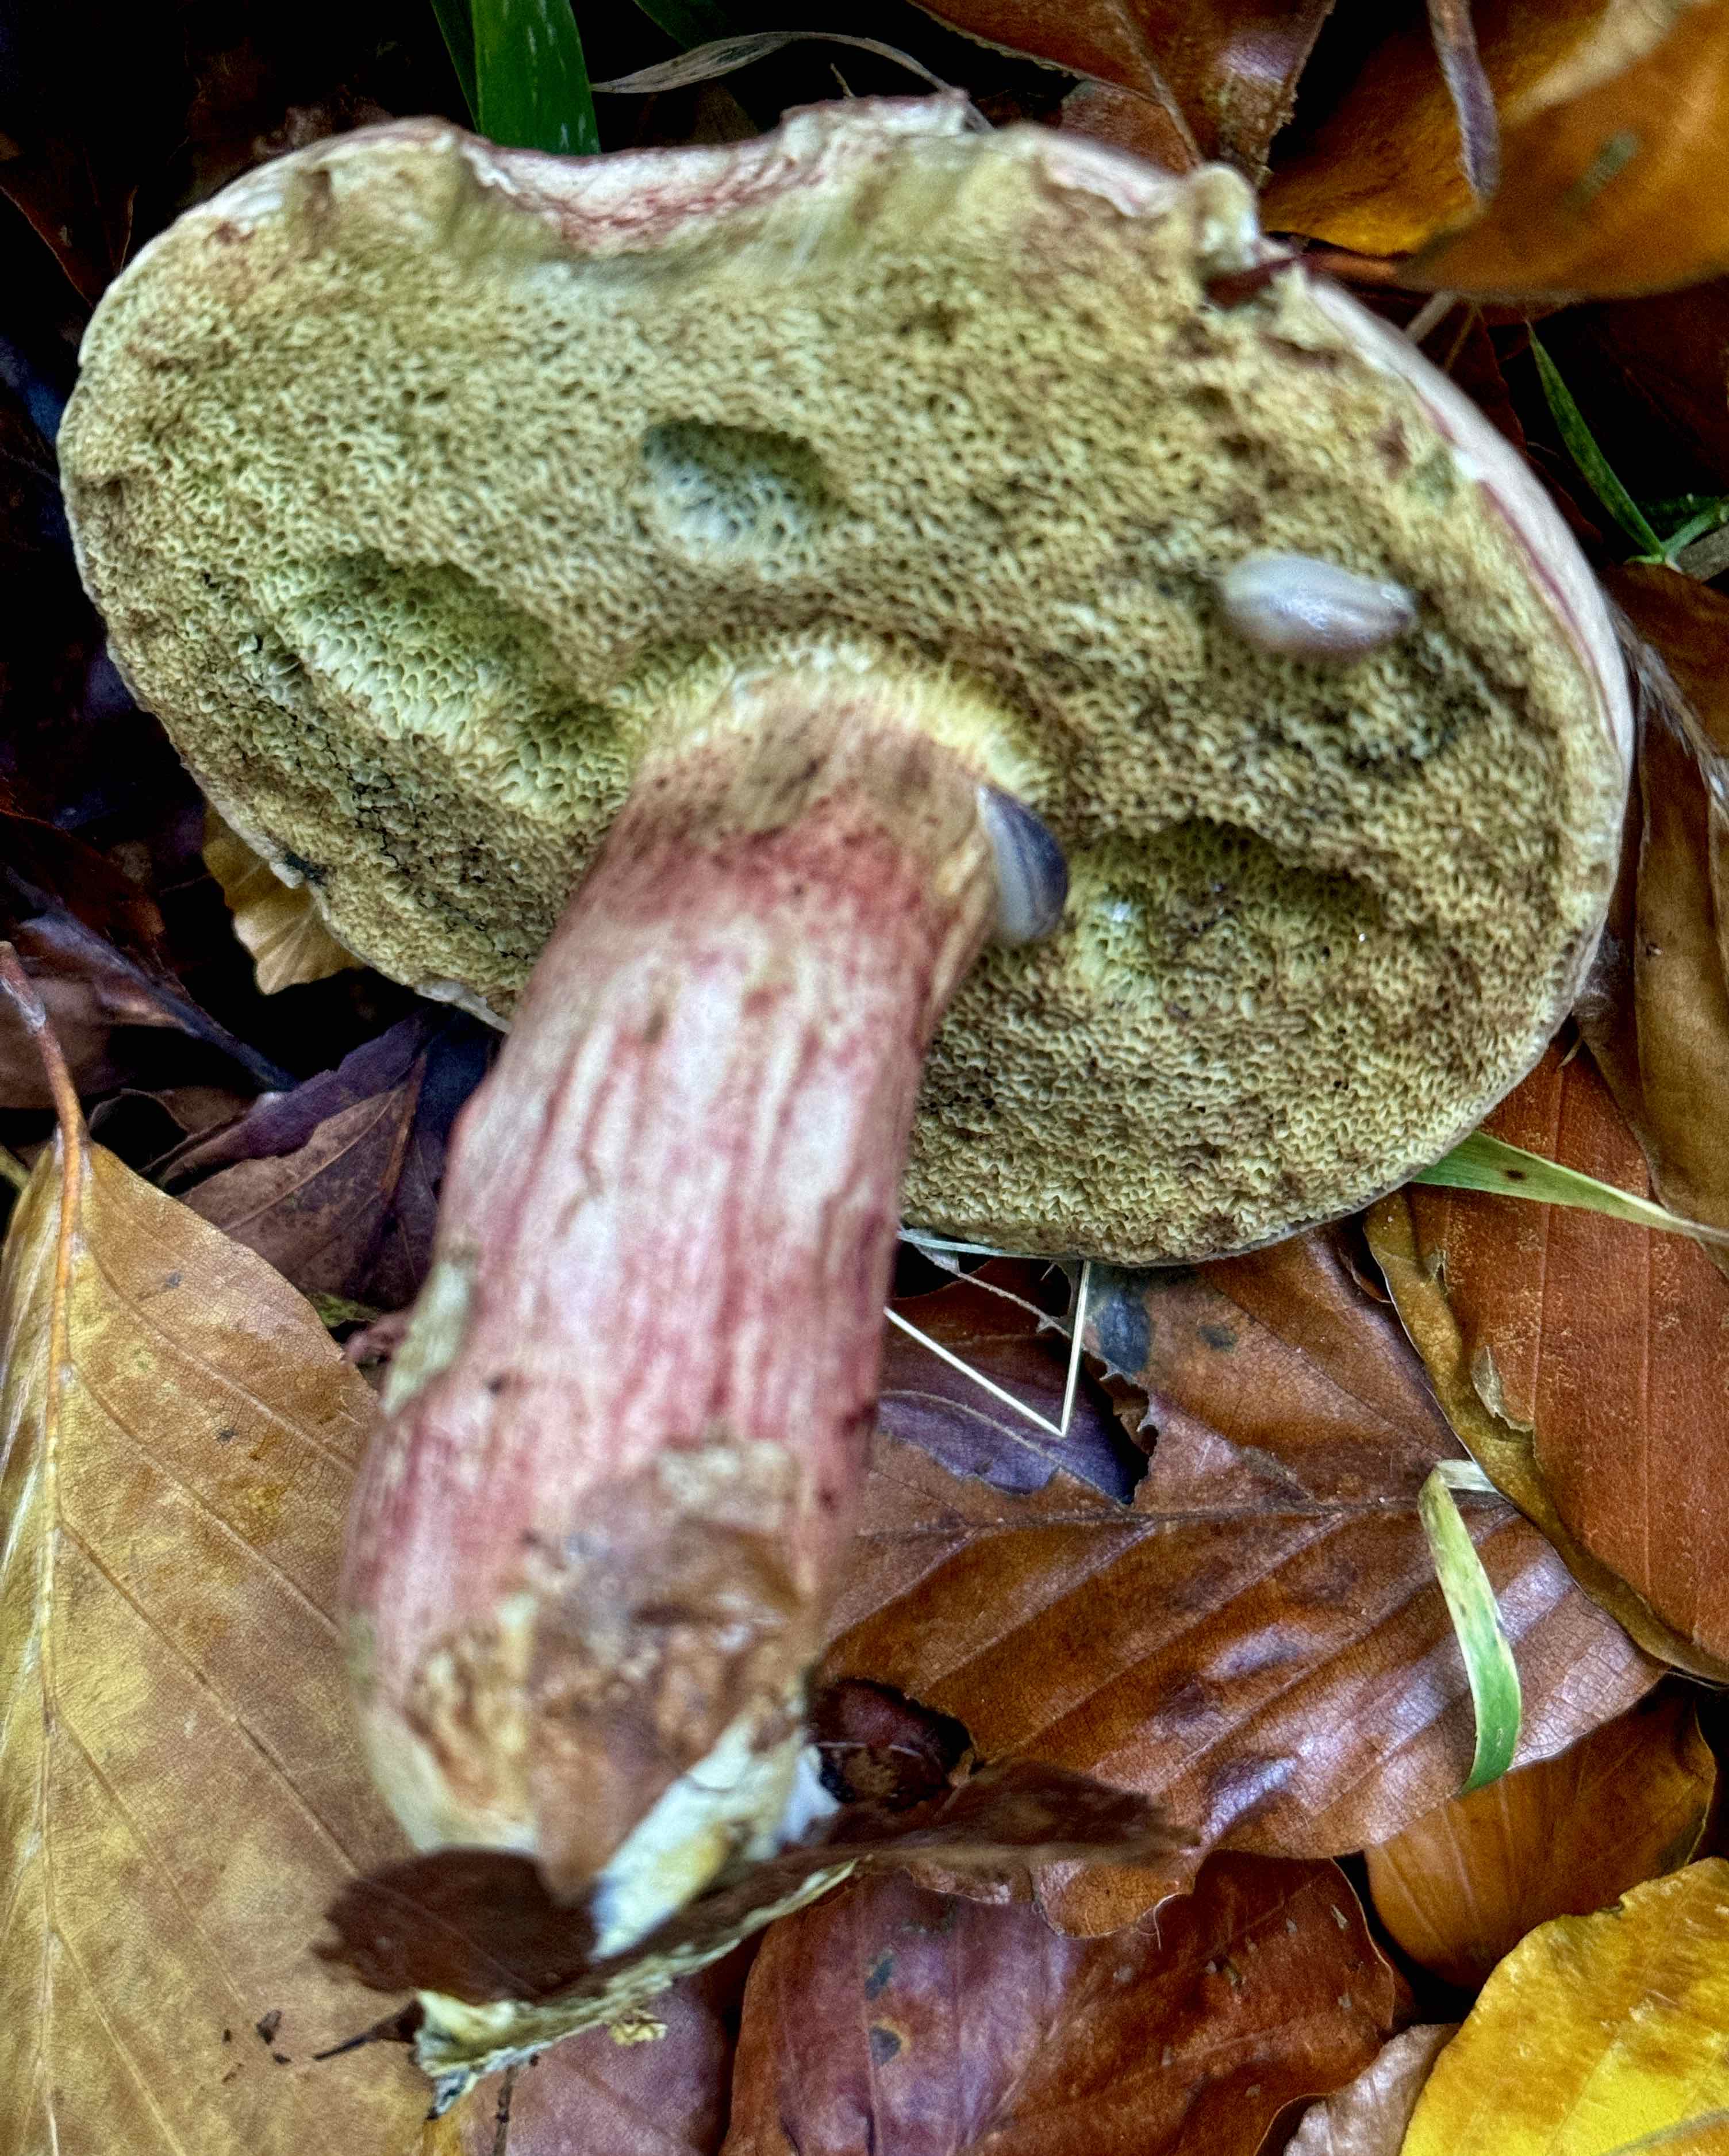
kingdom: Fungi
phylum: Basidiomycota
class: Agaricomycetes
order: Boletales
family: Boletaceae
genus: Xerocomellus
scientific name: Xerocomellus pruinatus
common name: dugget rørhat
